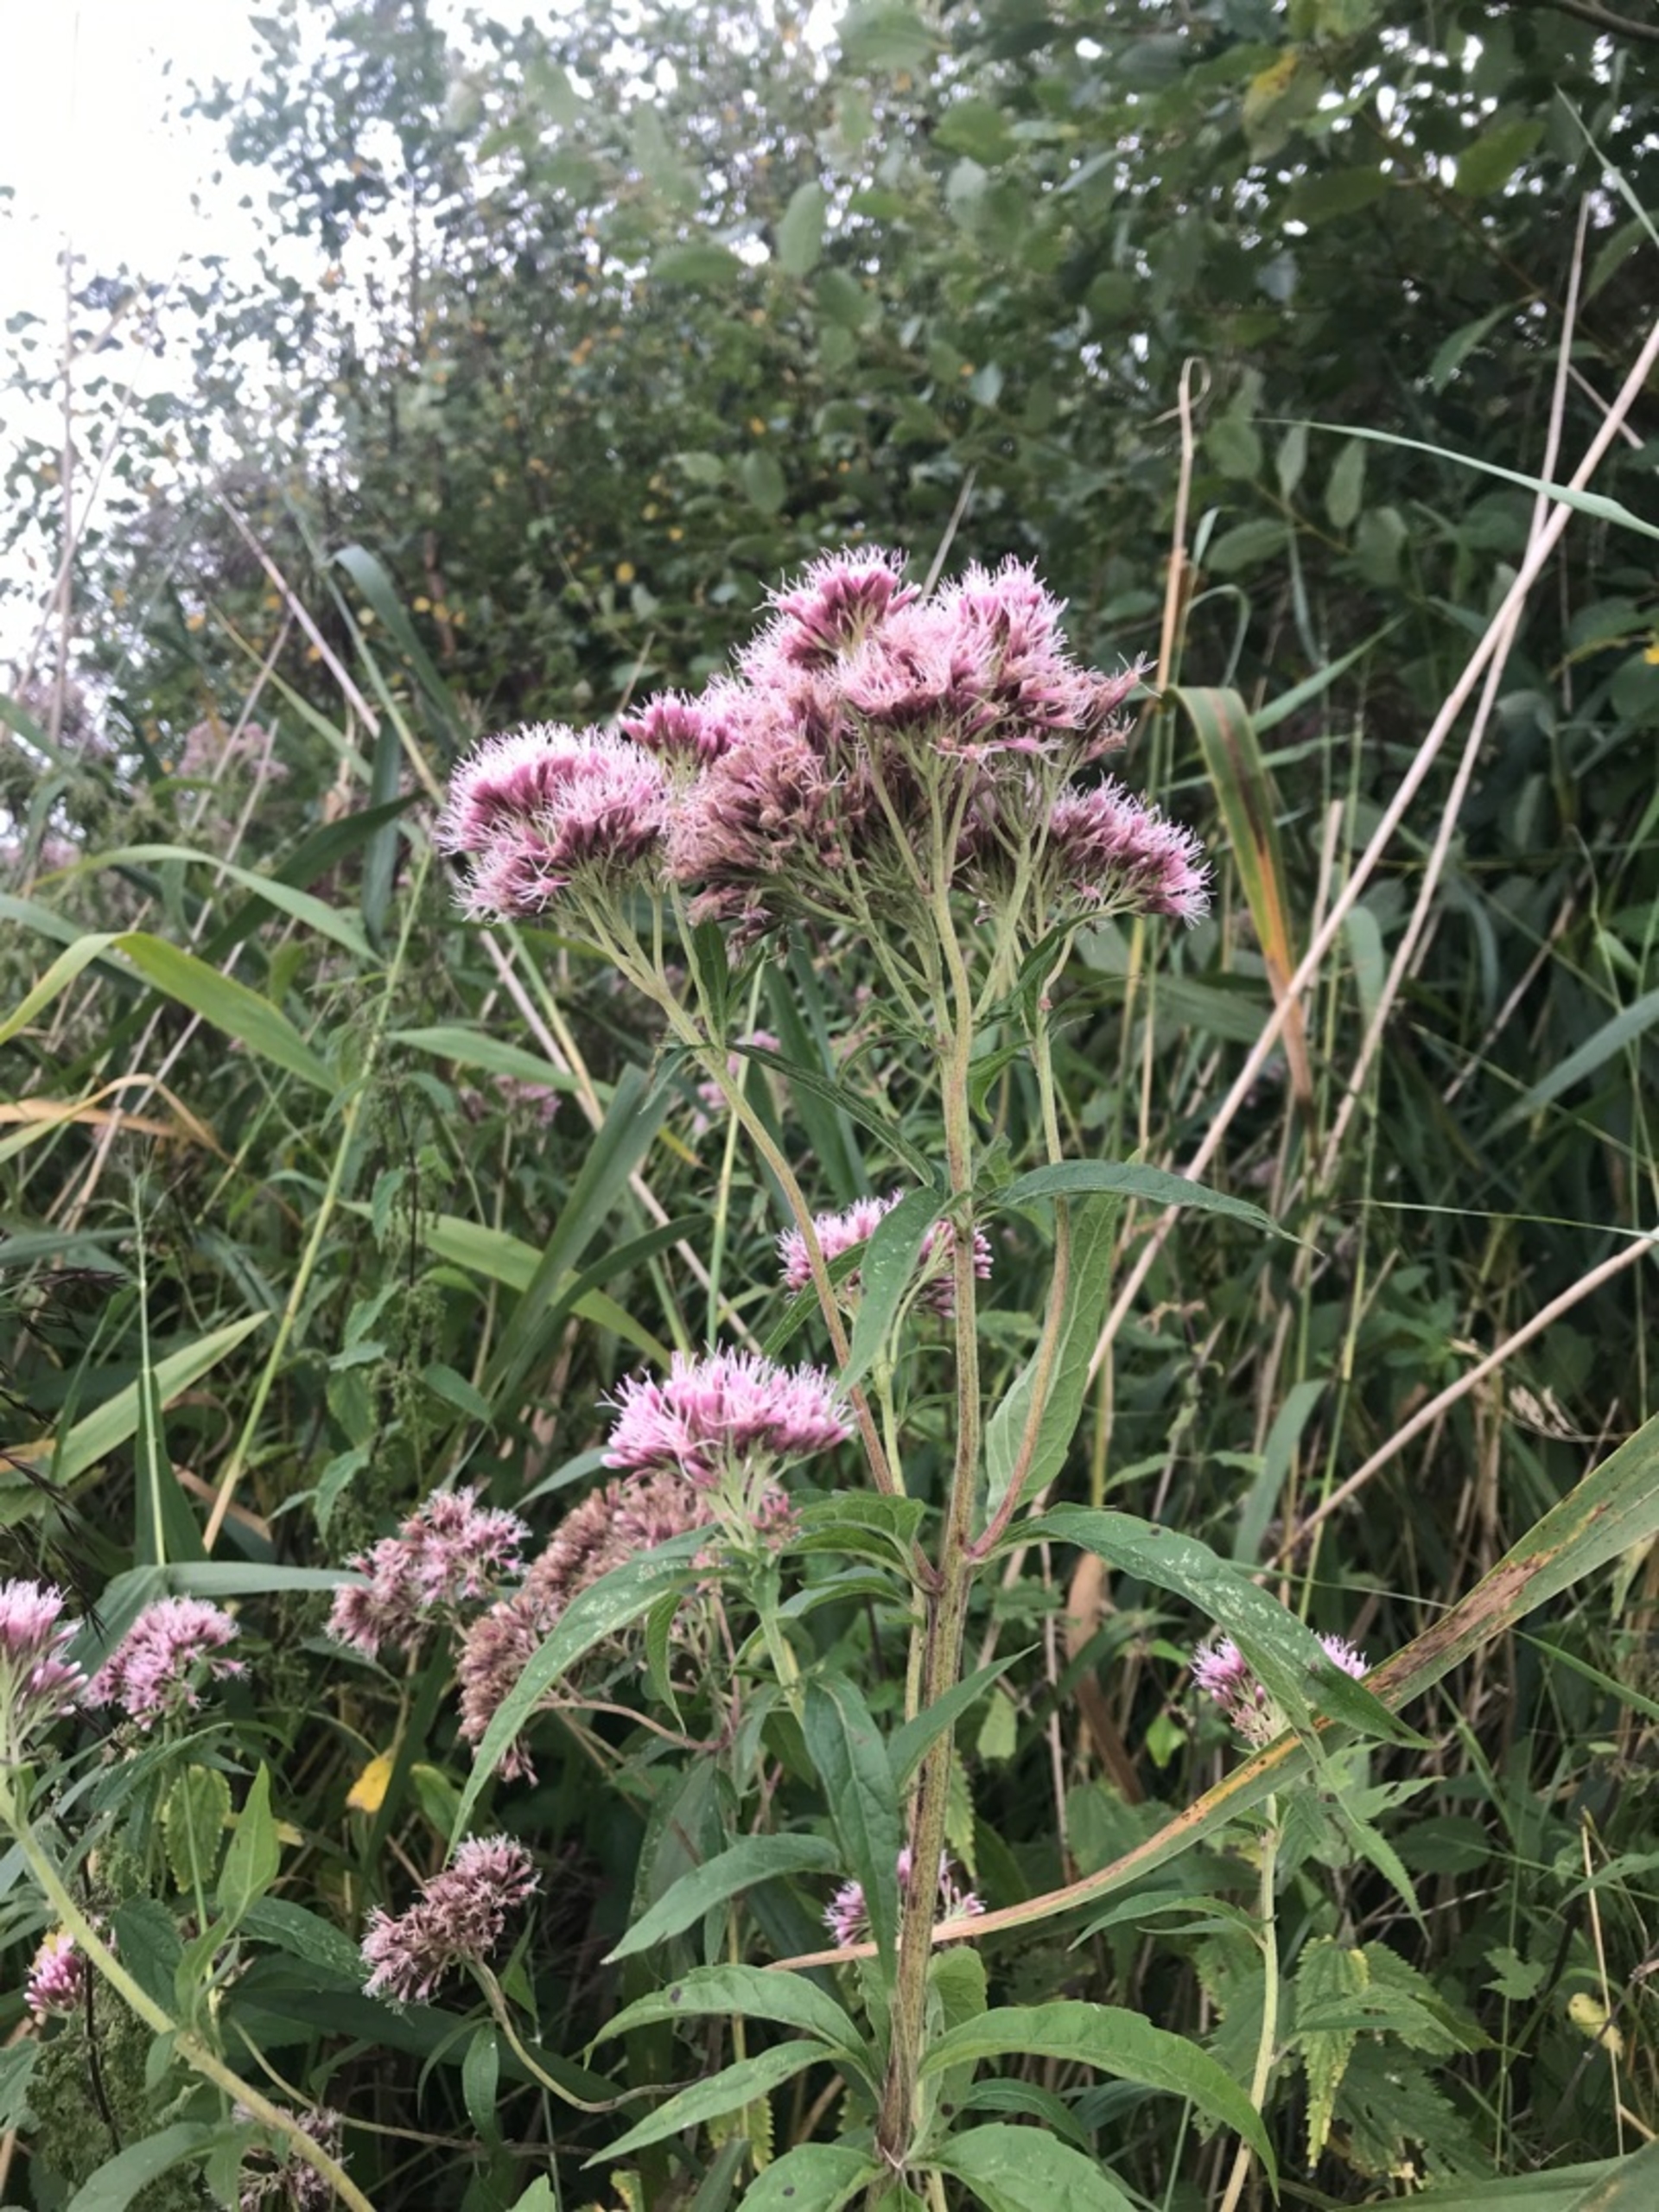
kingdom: Plantae
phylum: Tracheophyta
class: Magnoliopsida
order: Asterales
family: Asteraceae
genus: Eupatorium
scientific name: Eupatorium cannabinum
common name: Hjortetrøst
